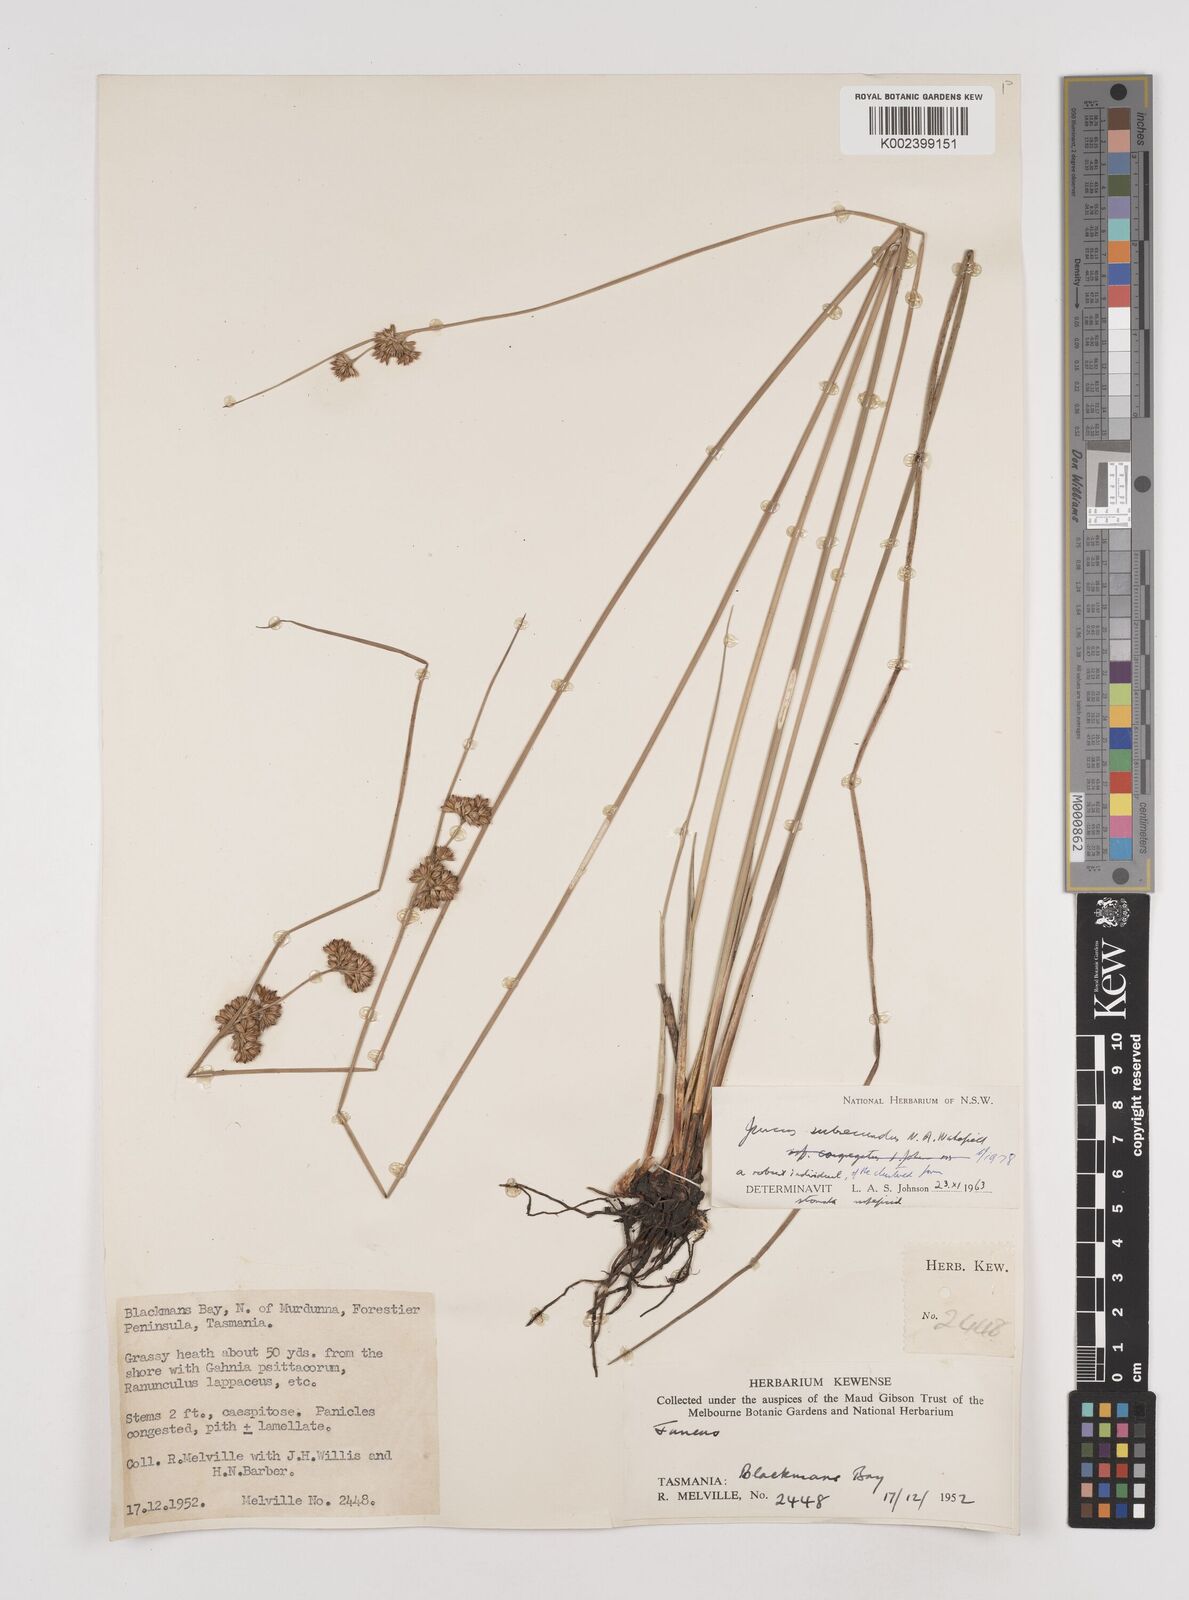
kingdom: Plantae
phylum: Tracheophyta
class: Liliopsida
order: Poales
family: Juncaceae
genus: Juncus
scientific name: Juncus subsecundus
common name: Fingered rush
